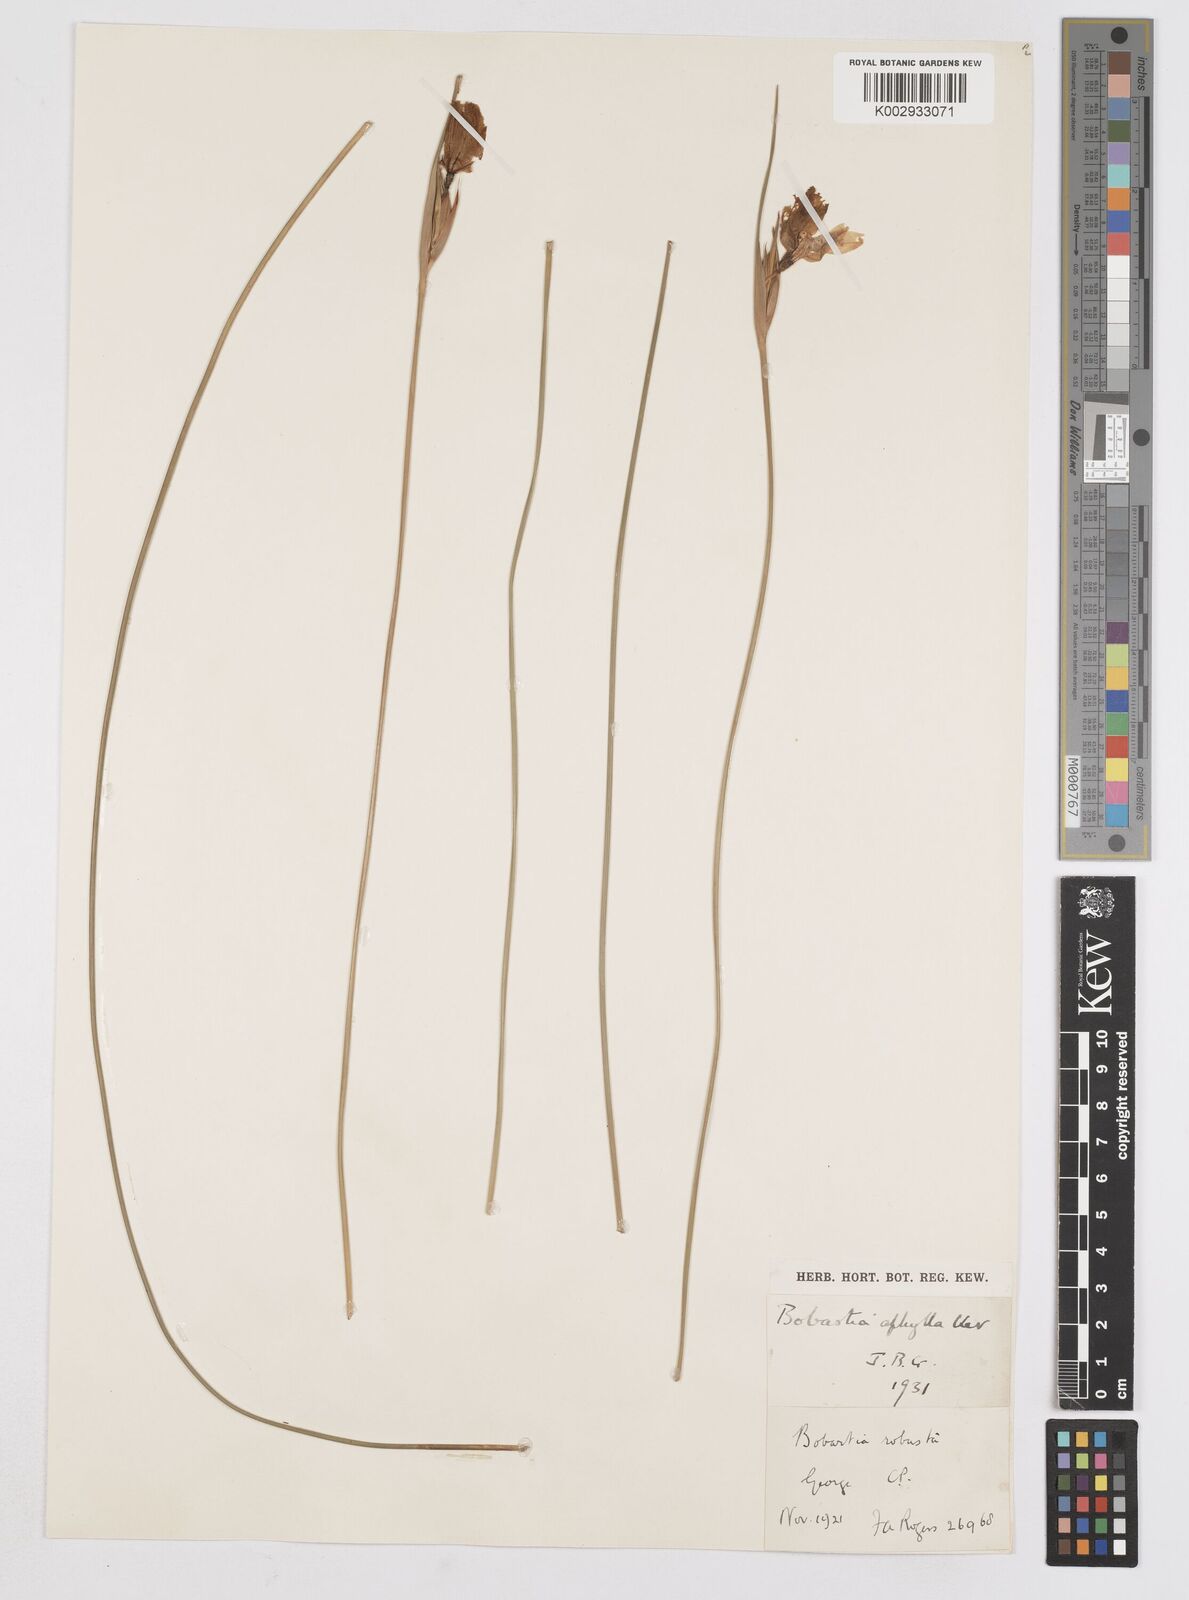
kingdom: Plantae
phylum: Tracheophyta
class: Liliopsida
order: Asparagales
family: Iridaceae
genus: Bobartia
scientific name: Bobartia aphylla
